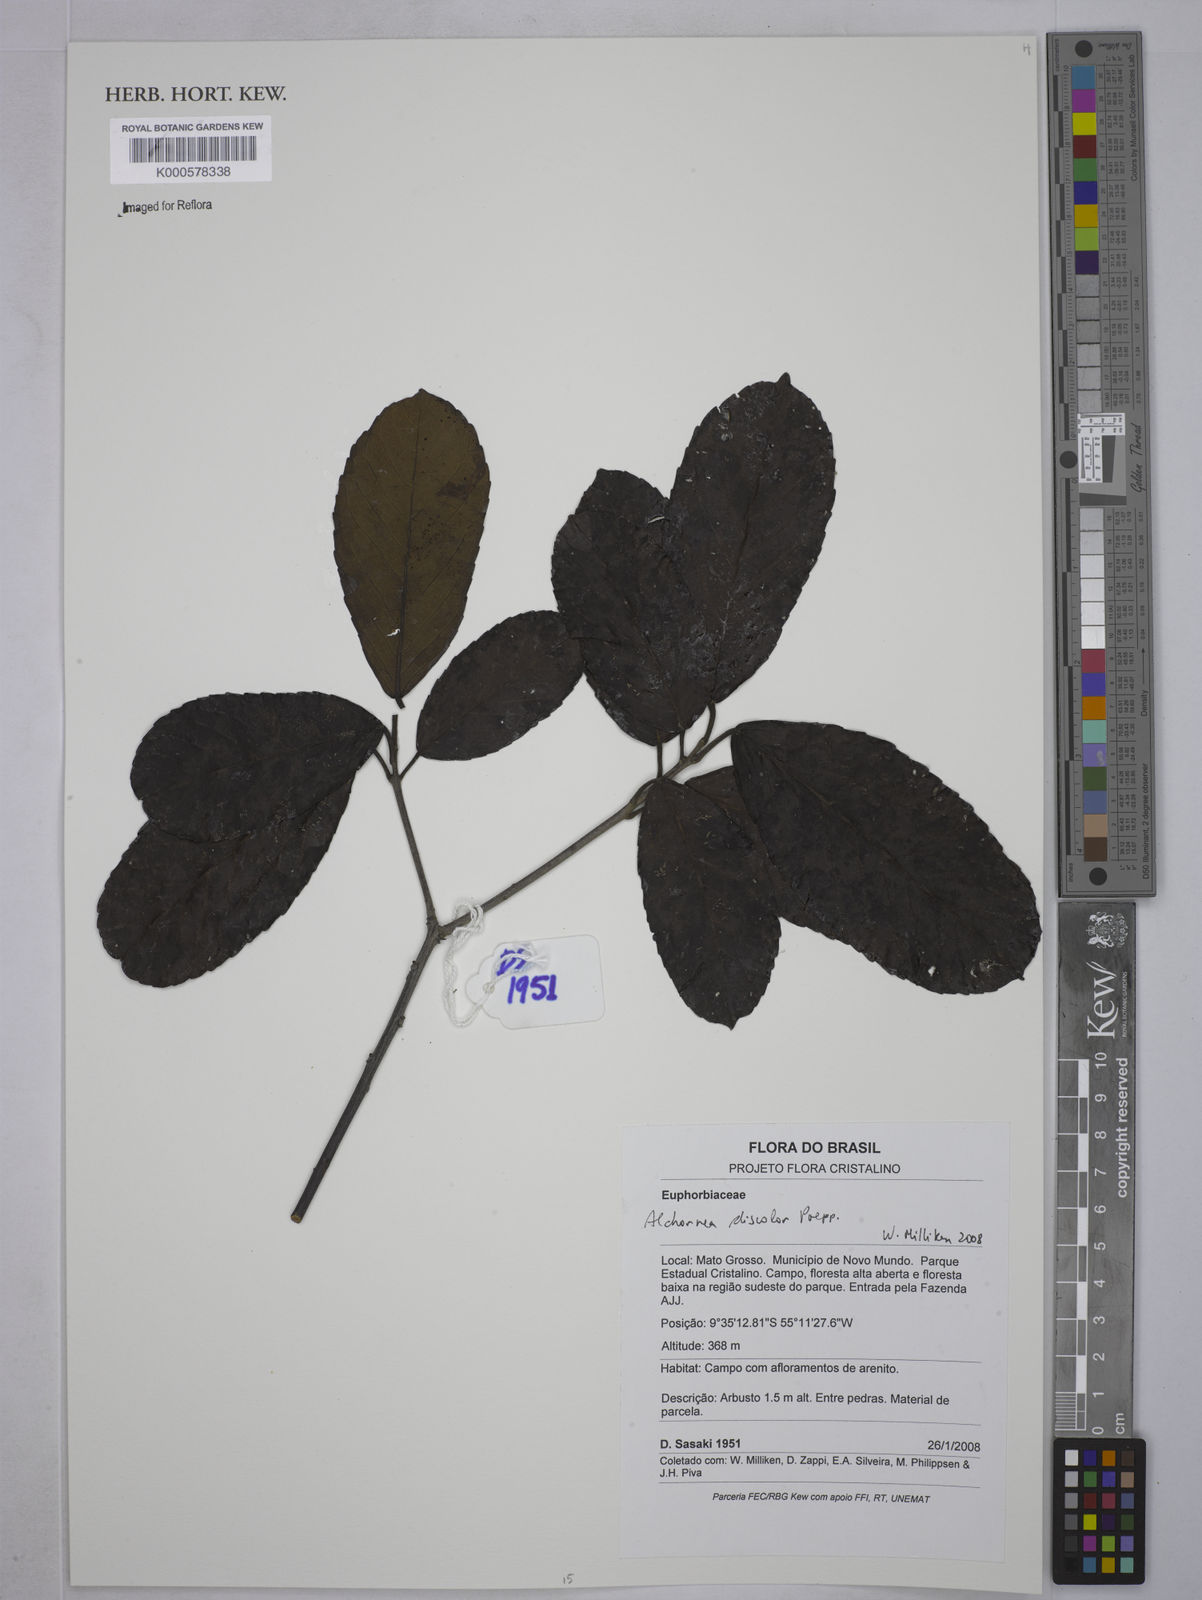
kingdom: Plantae
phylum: Tracheophyta
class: Magnoliopsida
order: Malpighiales
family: Euphorbiaceae
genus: Alchornea
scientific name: Alchornea discolor
